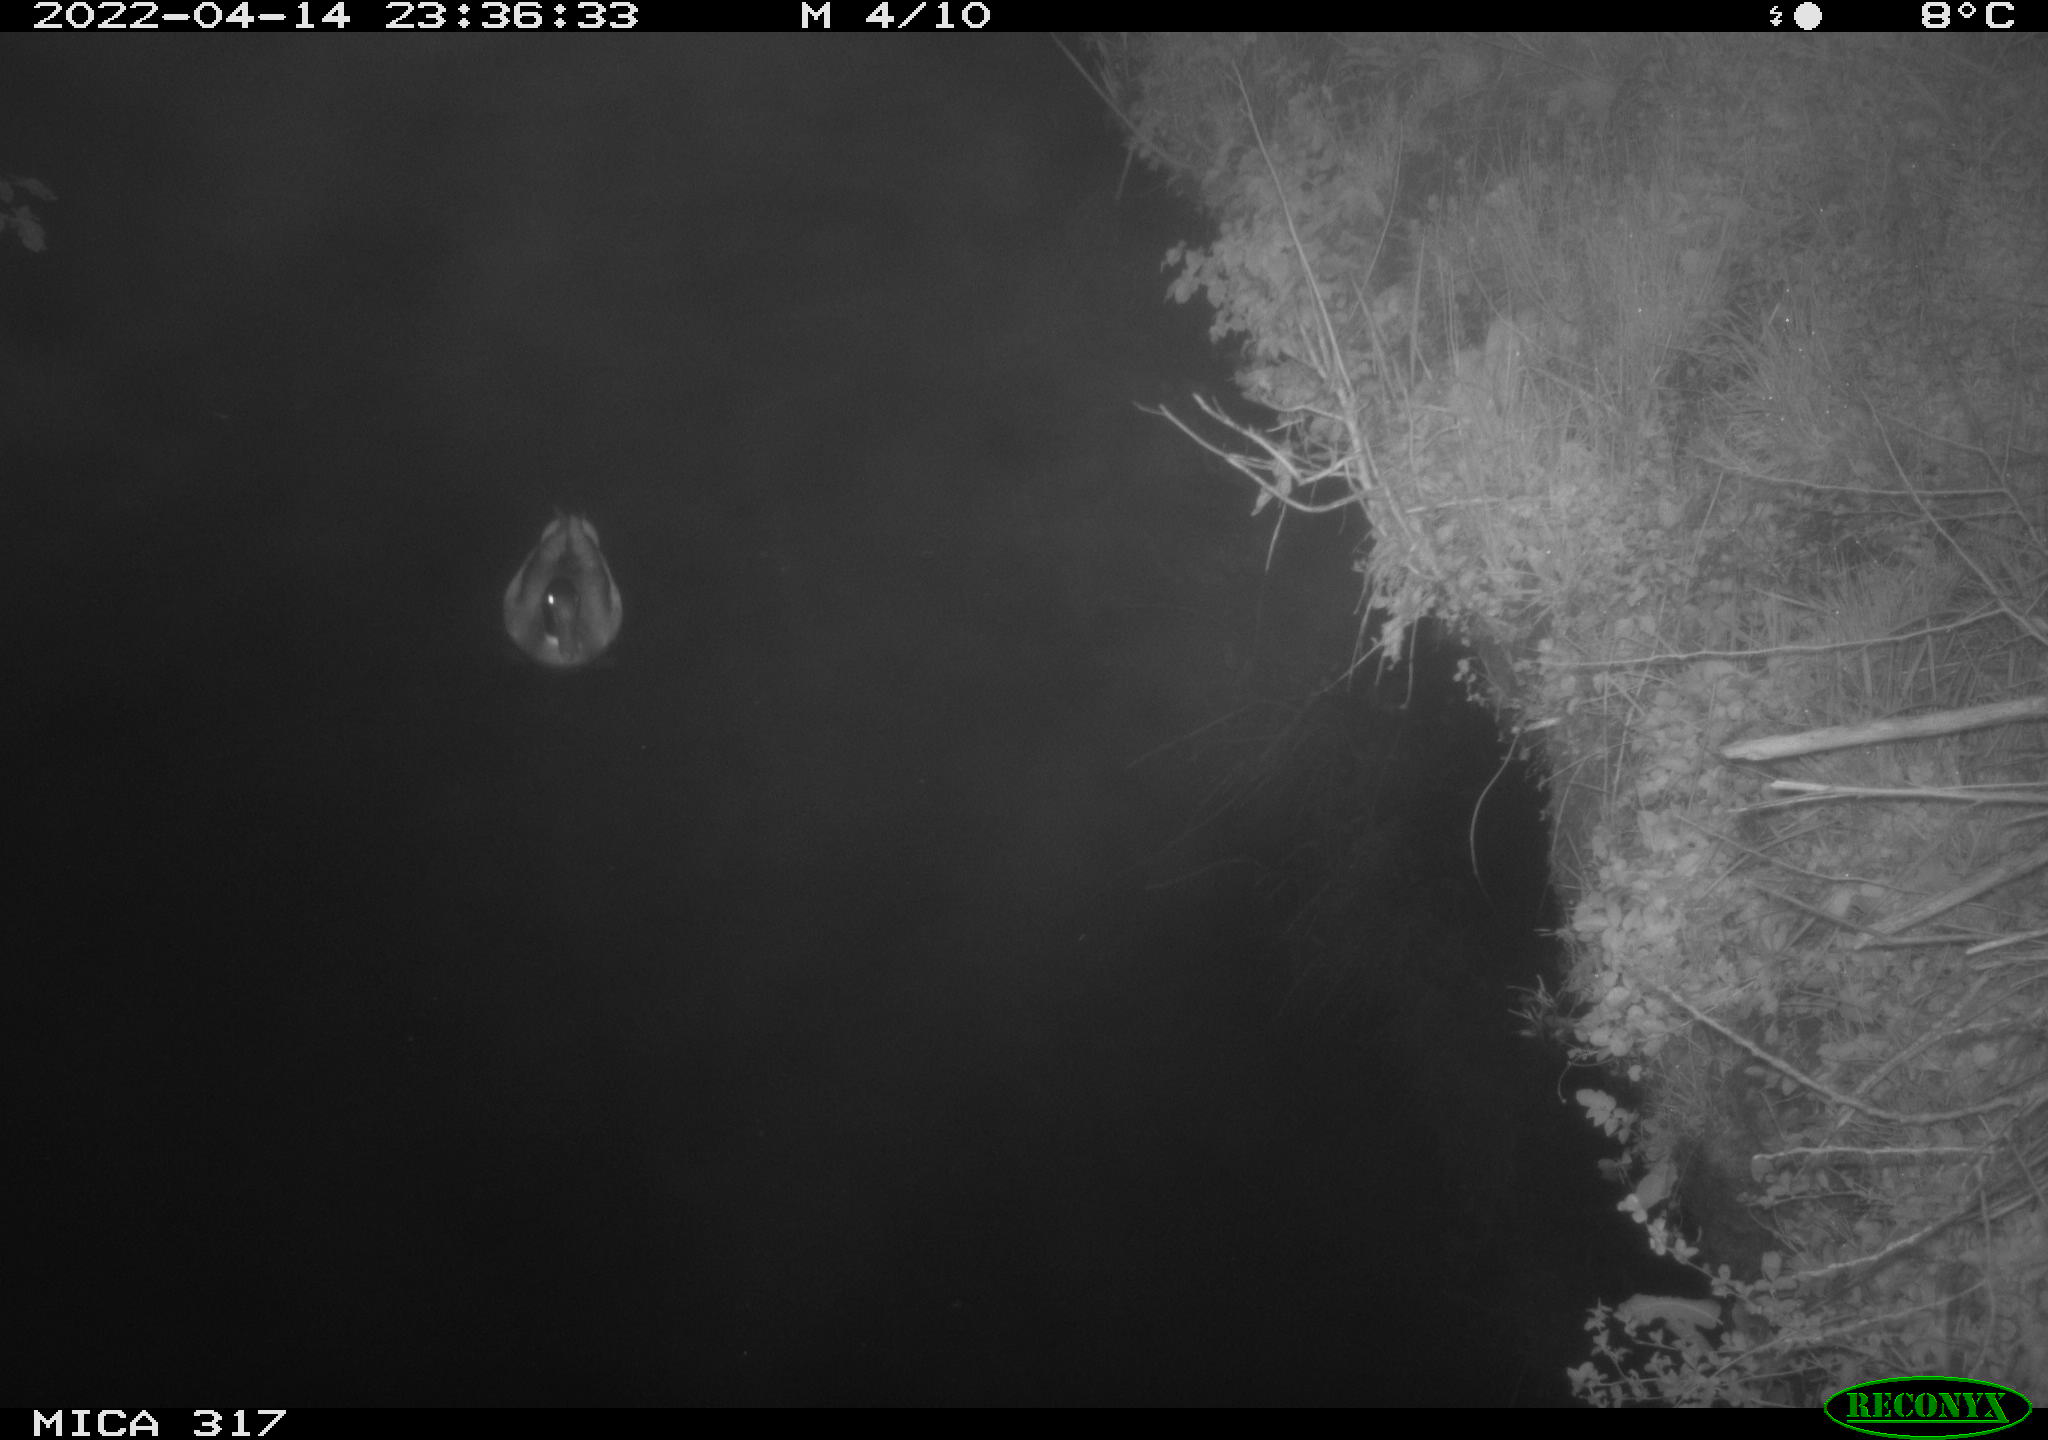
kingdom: Animalia
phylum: Chordata
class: Aves
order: Anseriformes
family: Anatidae
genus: Anas
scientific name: Anas platyrhynchos
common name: Mallard
